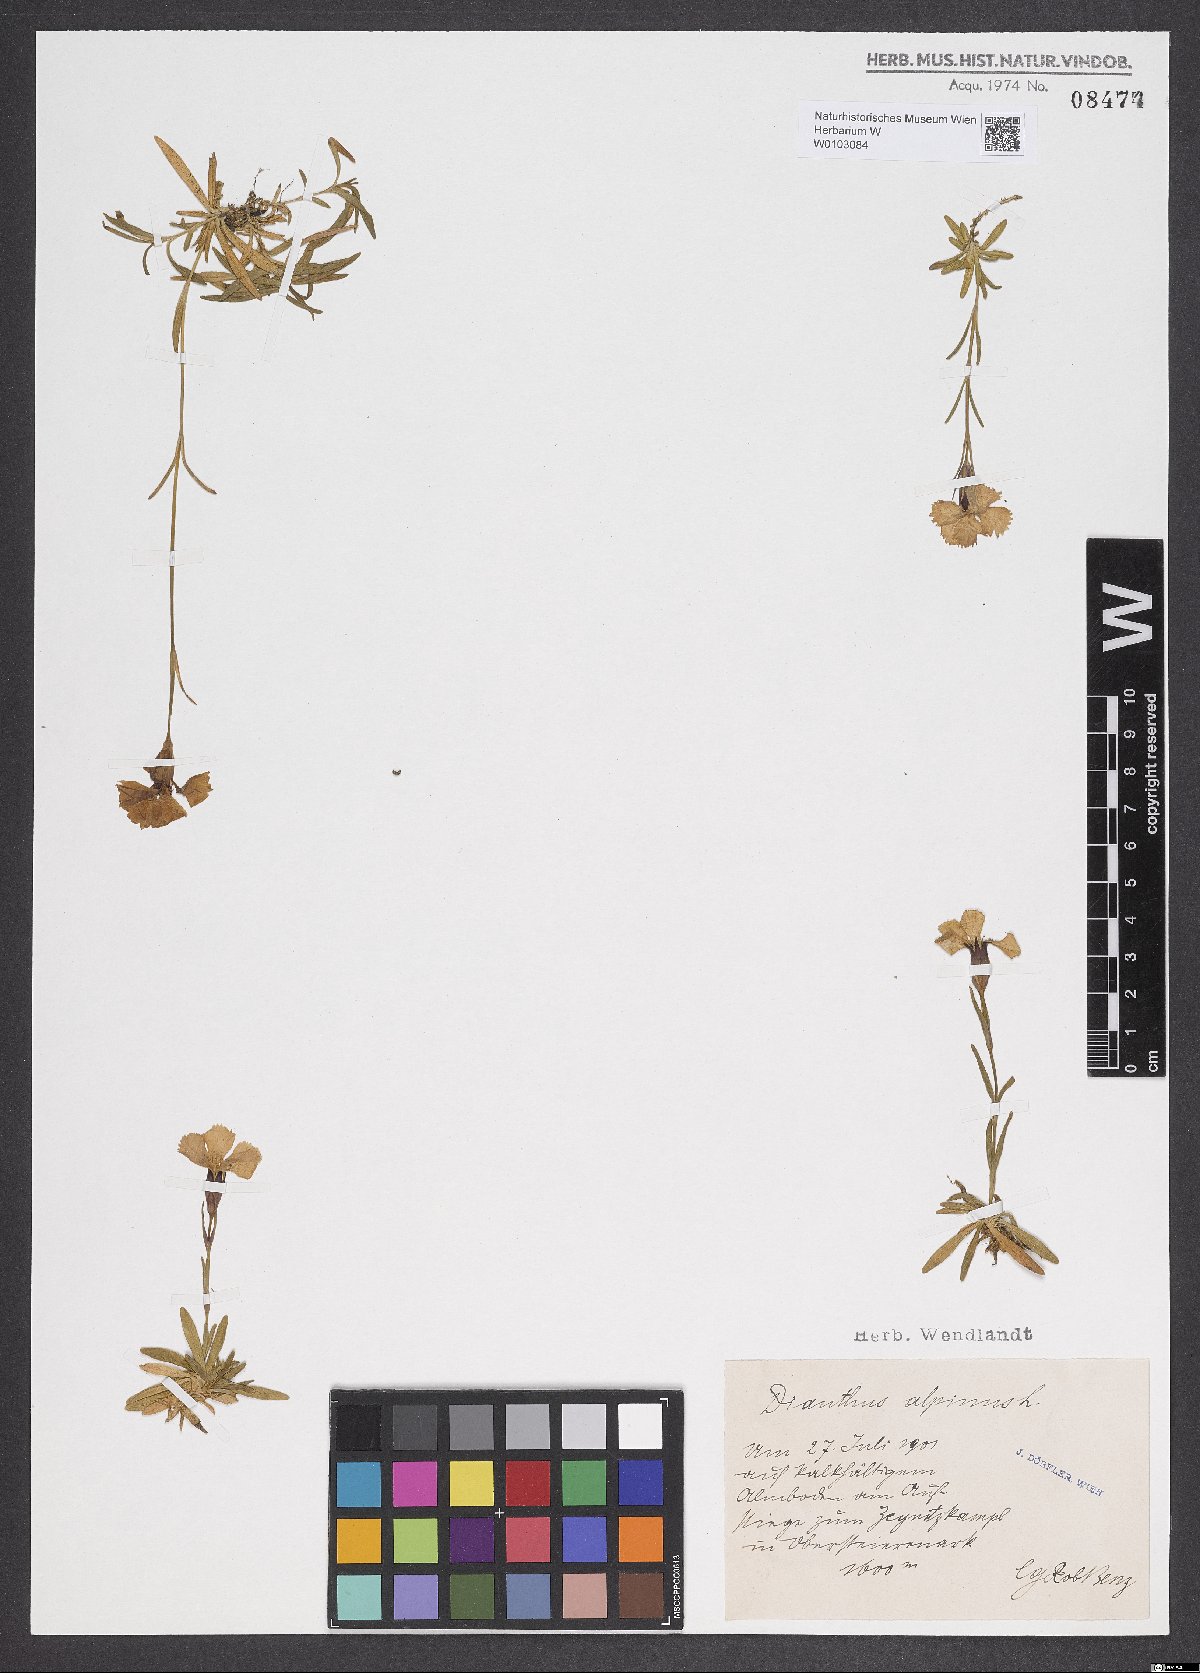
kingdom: Plantae
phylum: Tracheophyta
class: Magnoliopsida
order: Caryophyllales
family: Caryophyllaceae
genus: Dianthus
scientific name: Dianthus alpinus
